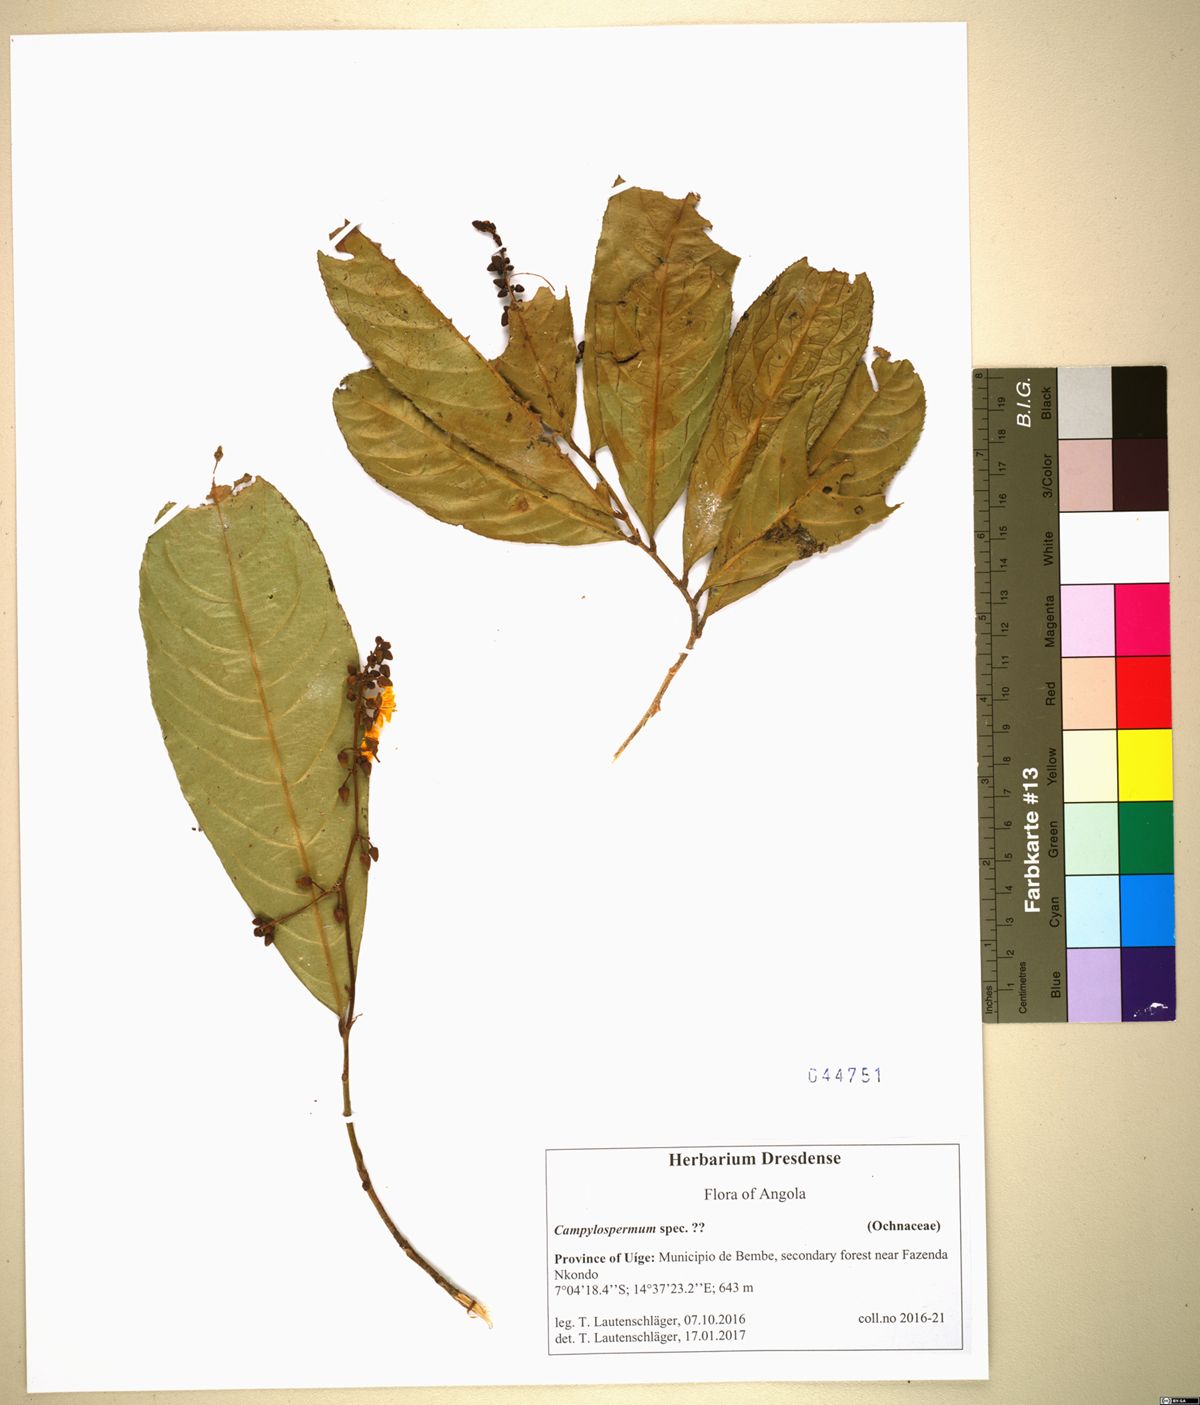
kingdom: Plantae
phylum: Tracheophyta
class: Magnoliopsida
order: Malpighiales
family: Ochnaceae
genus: Campylospermum
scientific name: Campylospermum
